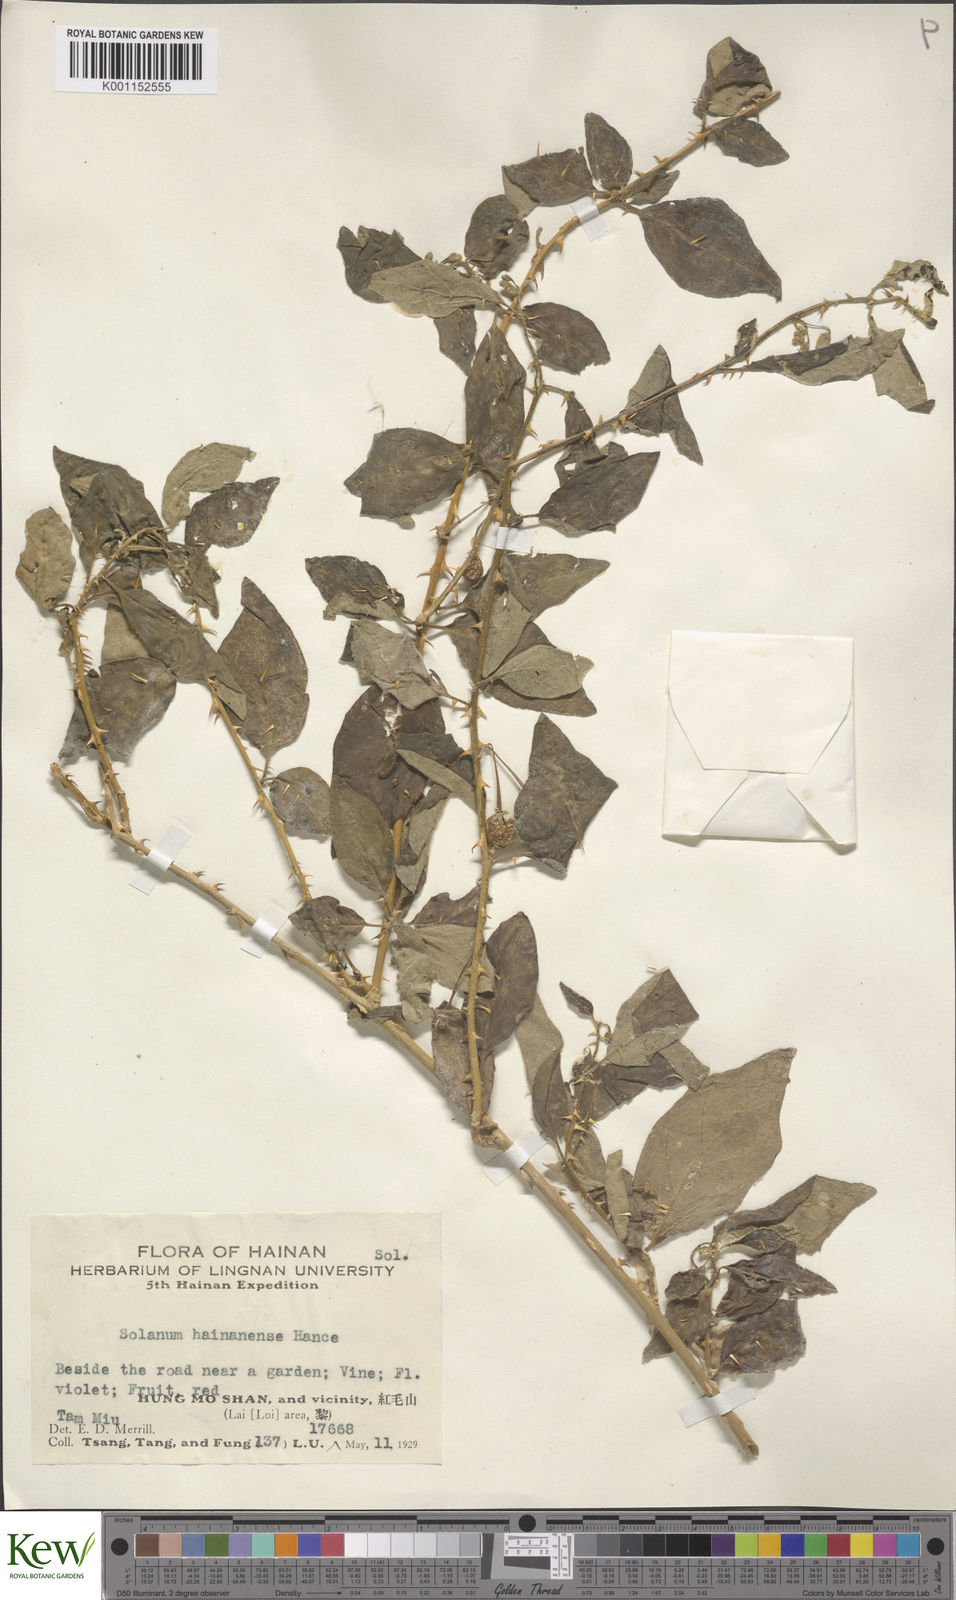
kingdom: Plantae
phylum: Tracheophyta
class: Magnoliopsida
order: Solanales
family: Solanaceae
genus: Solanum
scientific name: Solanum procumbens
